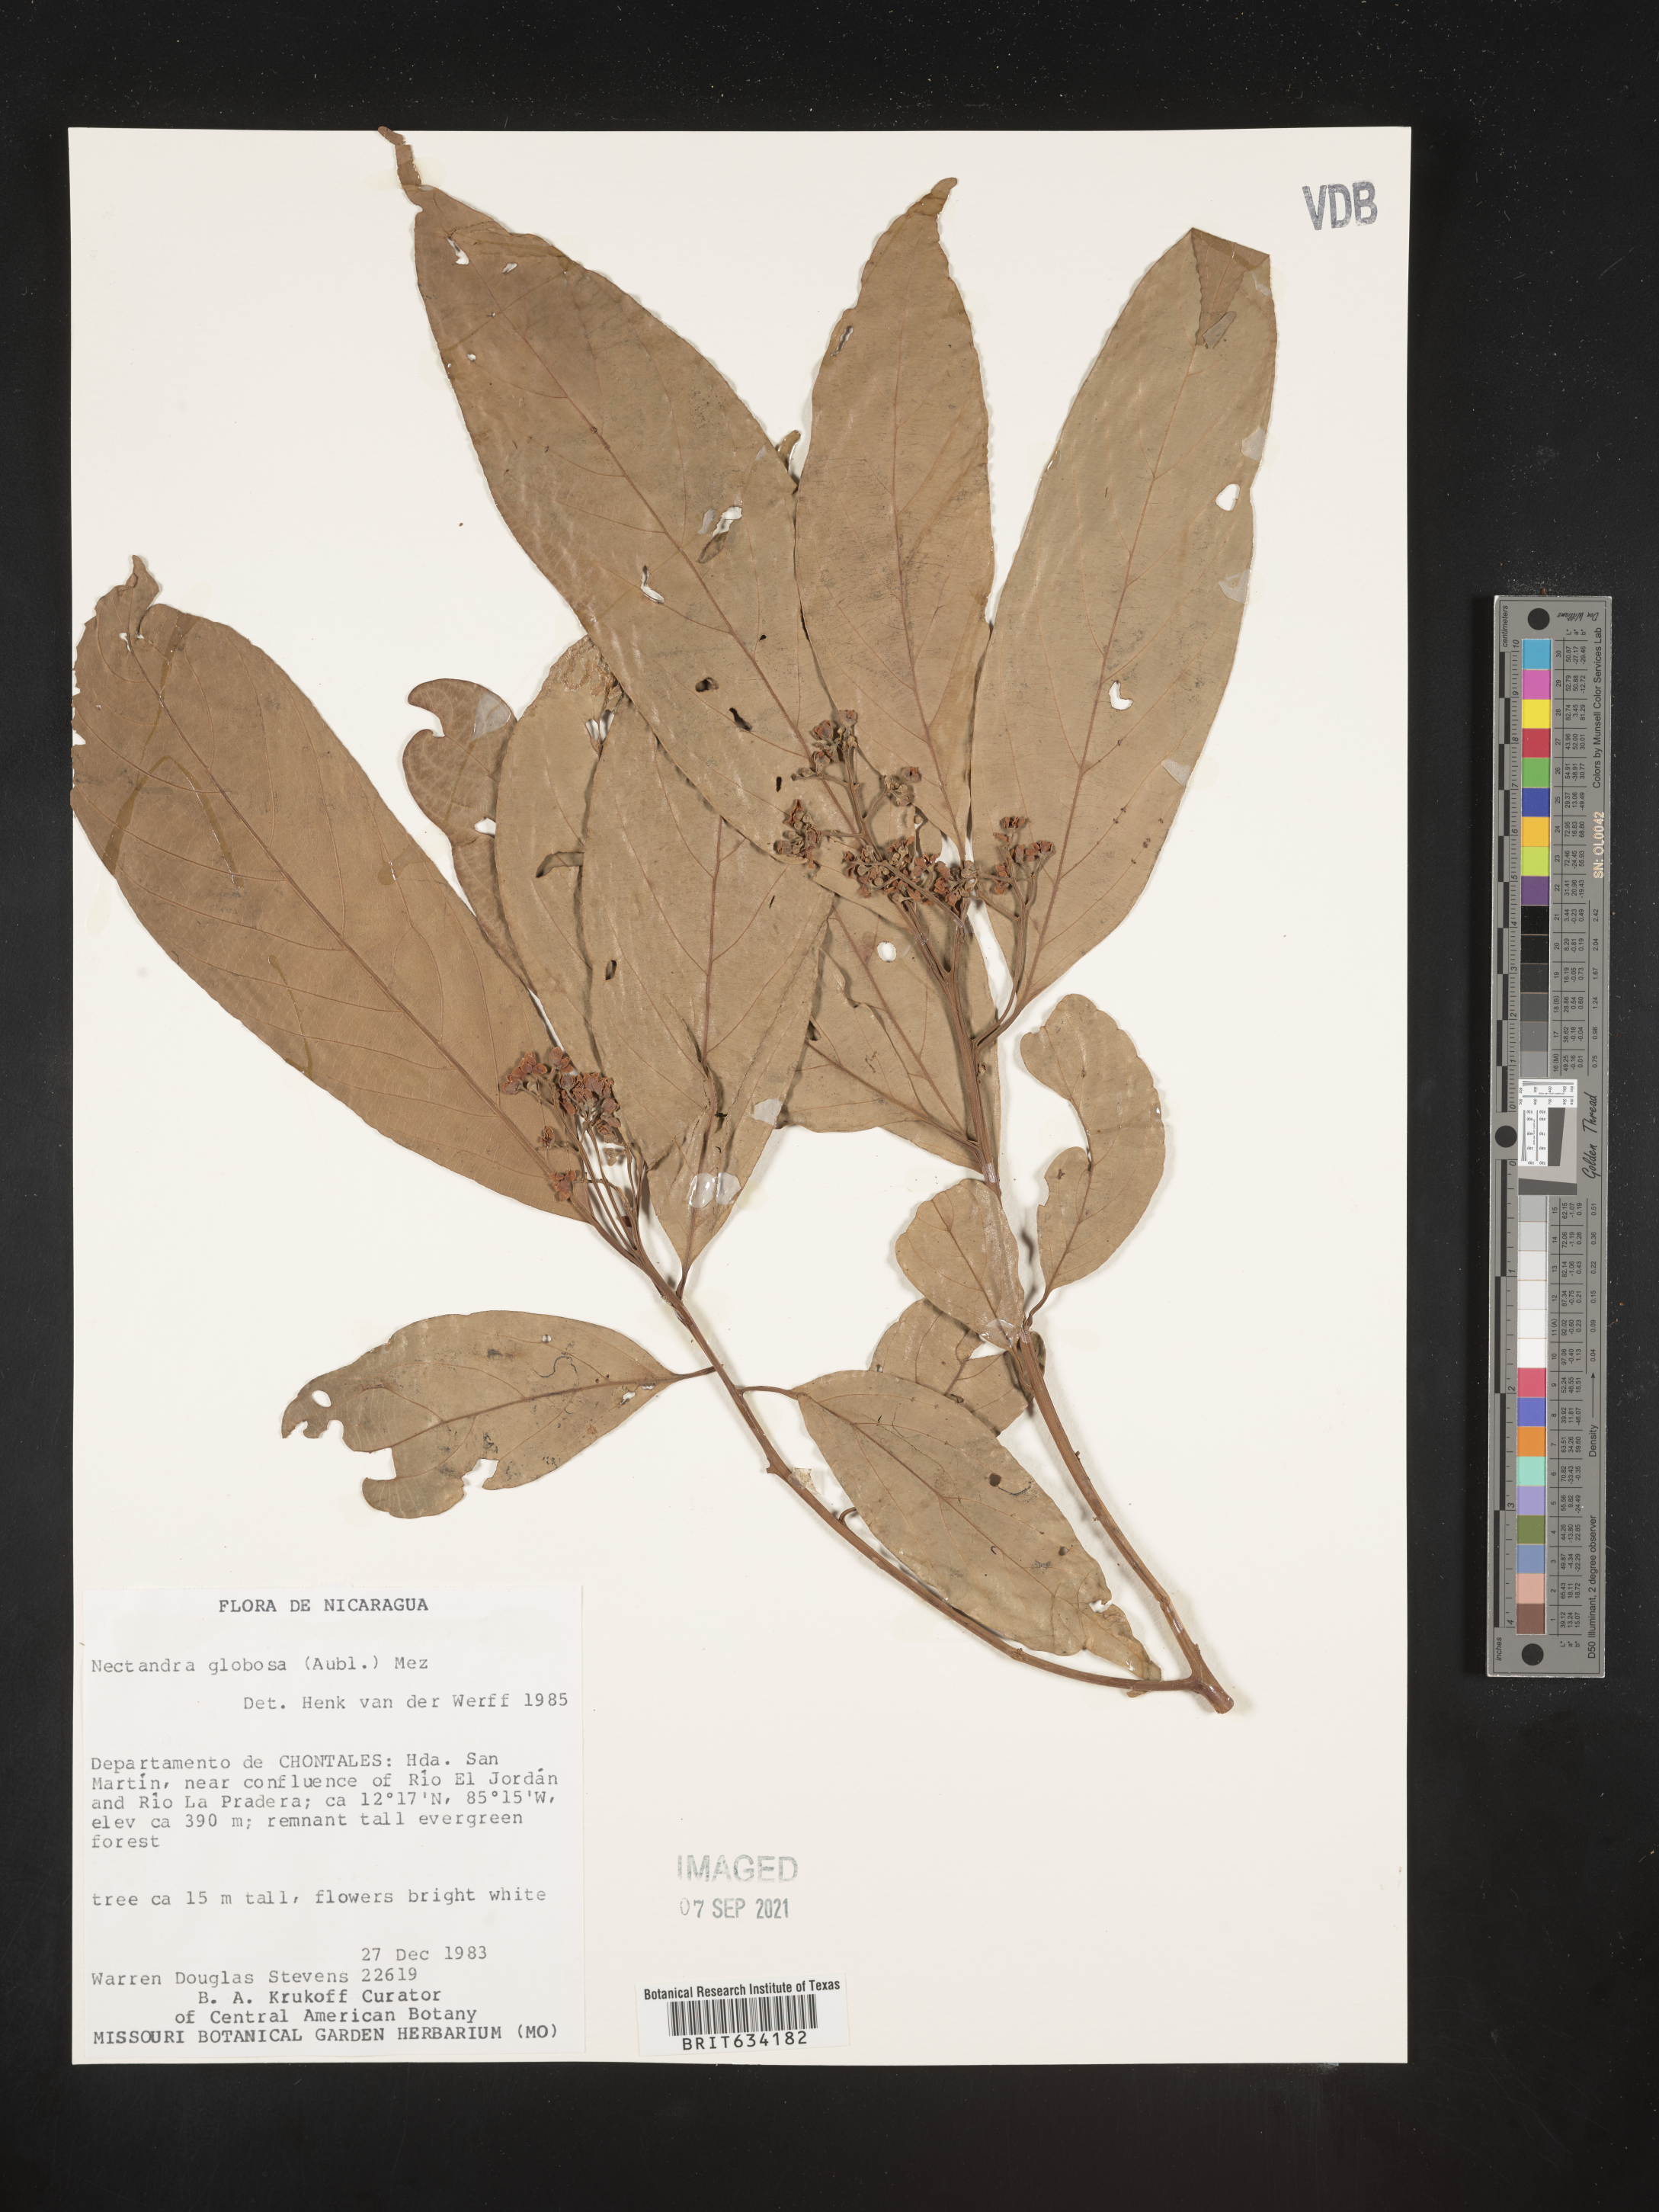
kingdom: Plantae
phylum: Tracheophyta
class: Magnoliopsida
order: Laurales
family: Lauraceae
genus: Nectandra
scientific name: Nectandra
